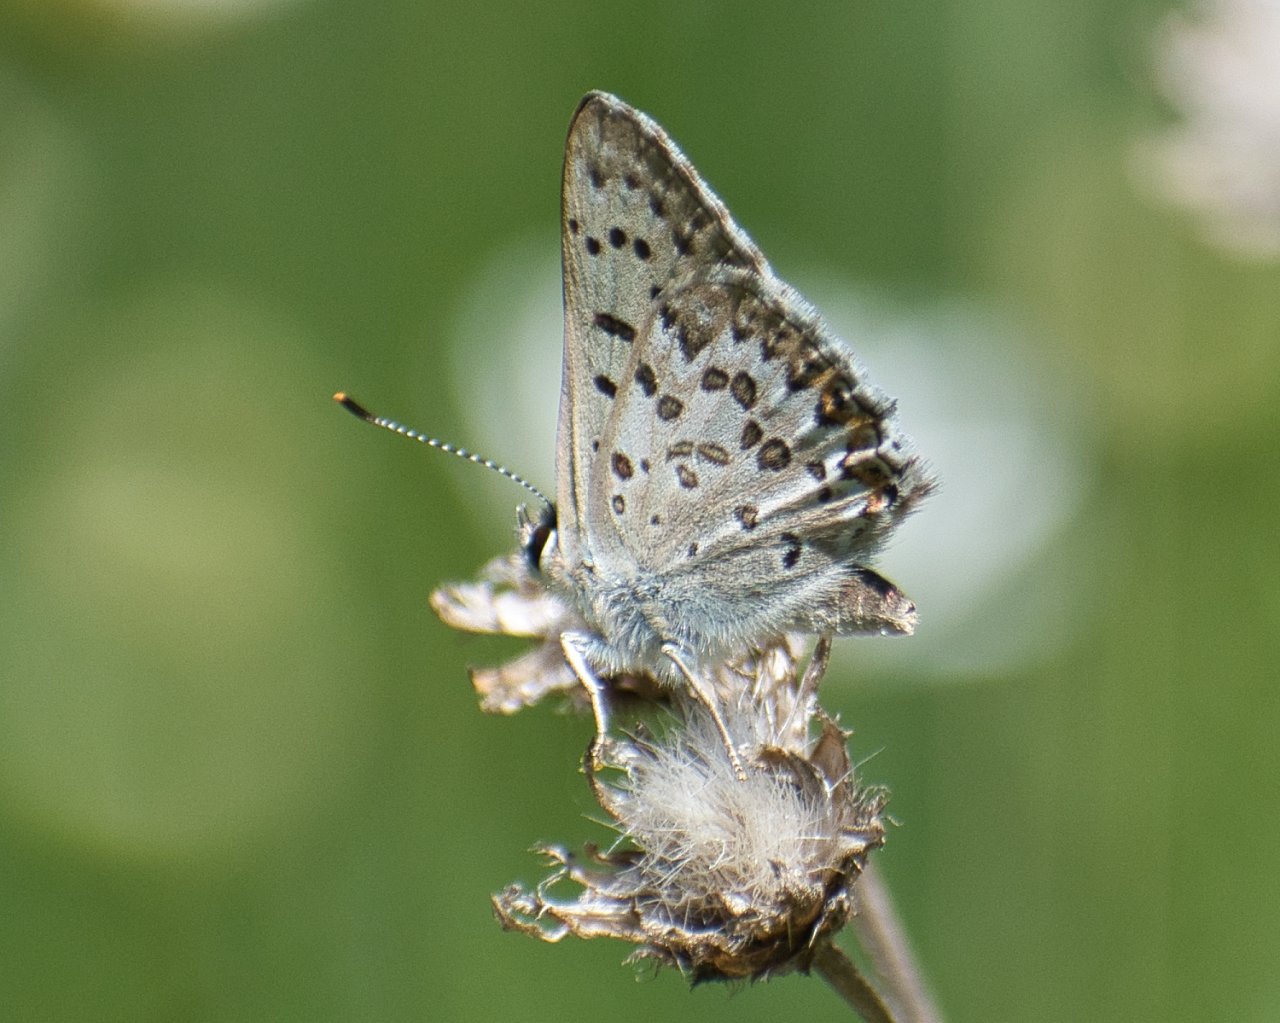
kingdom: Animalia
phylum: Arthropoda
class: Insecta
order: Lepidoptera
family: Lycaenidae
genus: Lycaena
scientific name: Lycaena editha
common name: Edith's Copper
